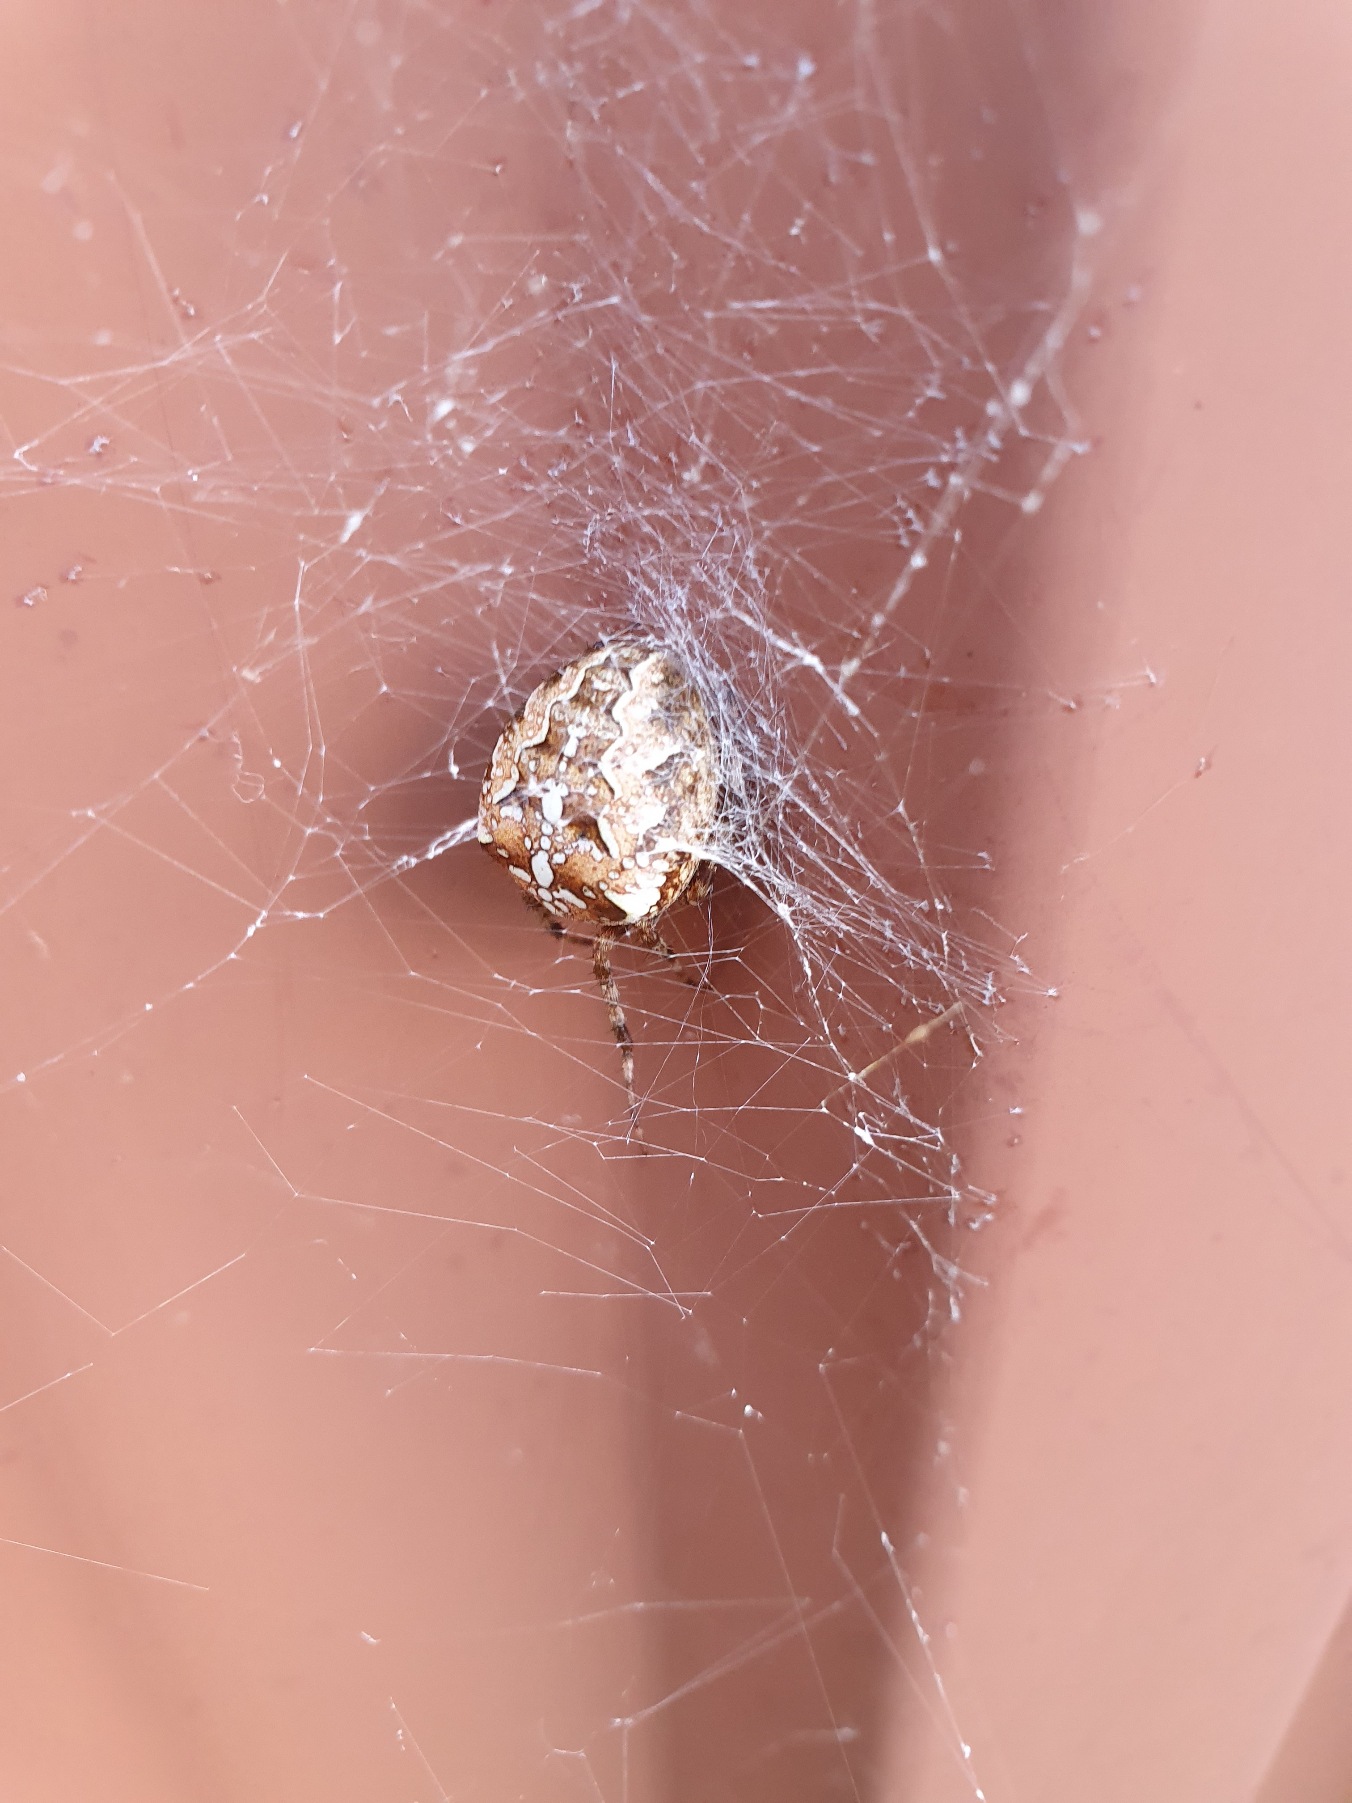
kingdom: Animalia
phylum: Arthropoda
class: Arachnida
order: Araneae
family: Araneidae
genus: Araneus
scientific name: Araneus diadematus
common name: Korsedderkop
